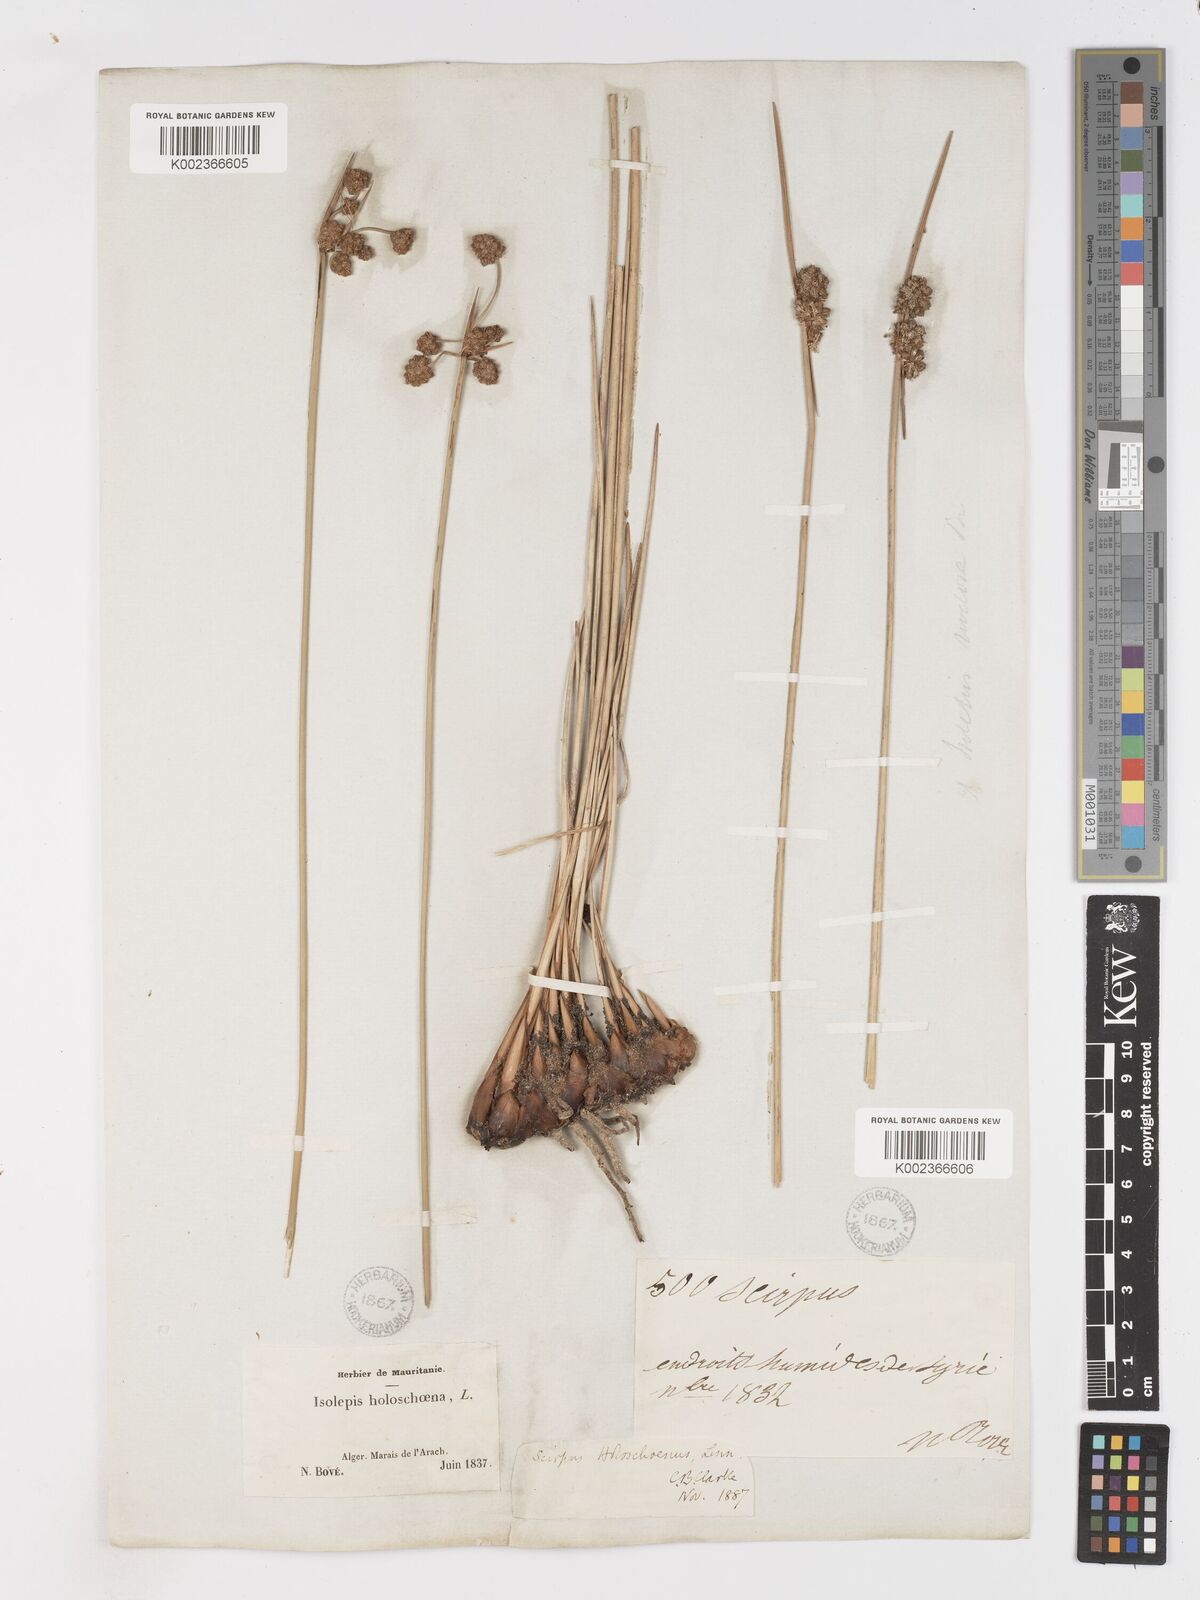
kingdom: Plantae
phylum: Tracheophyta
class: Liliopsida
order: Poales
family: Cyperaceae
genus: Scirpoides
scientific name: Scirpoides holoschoenus
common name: Round-headed club-rush
